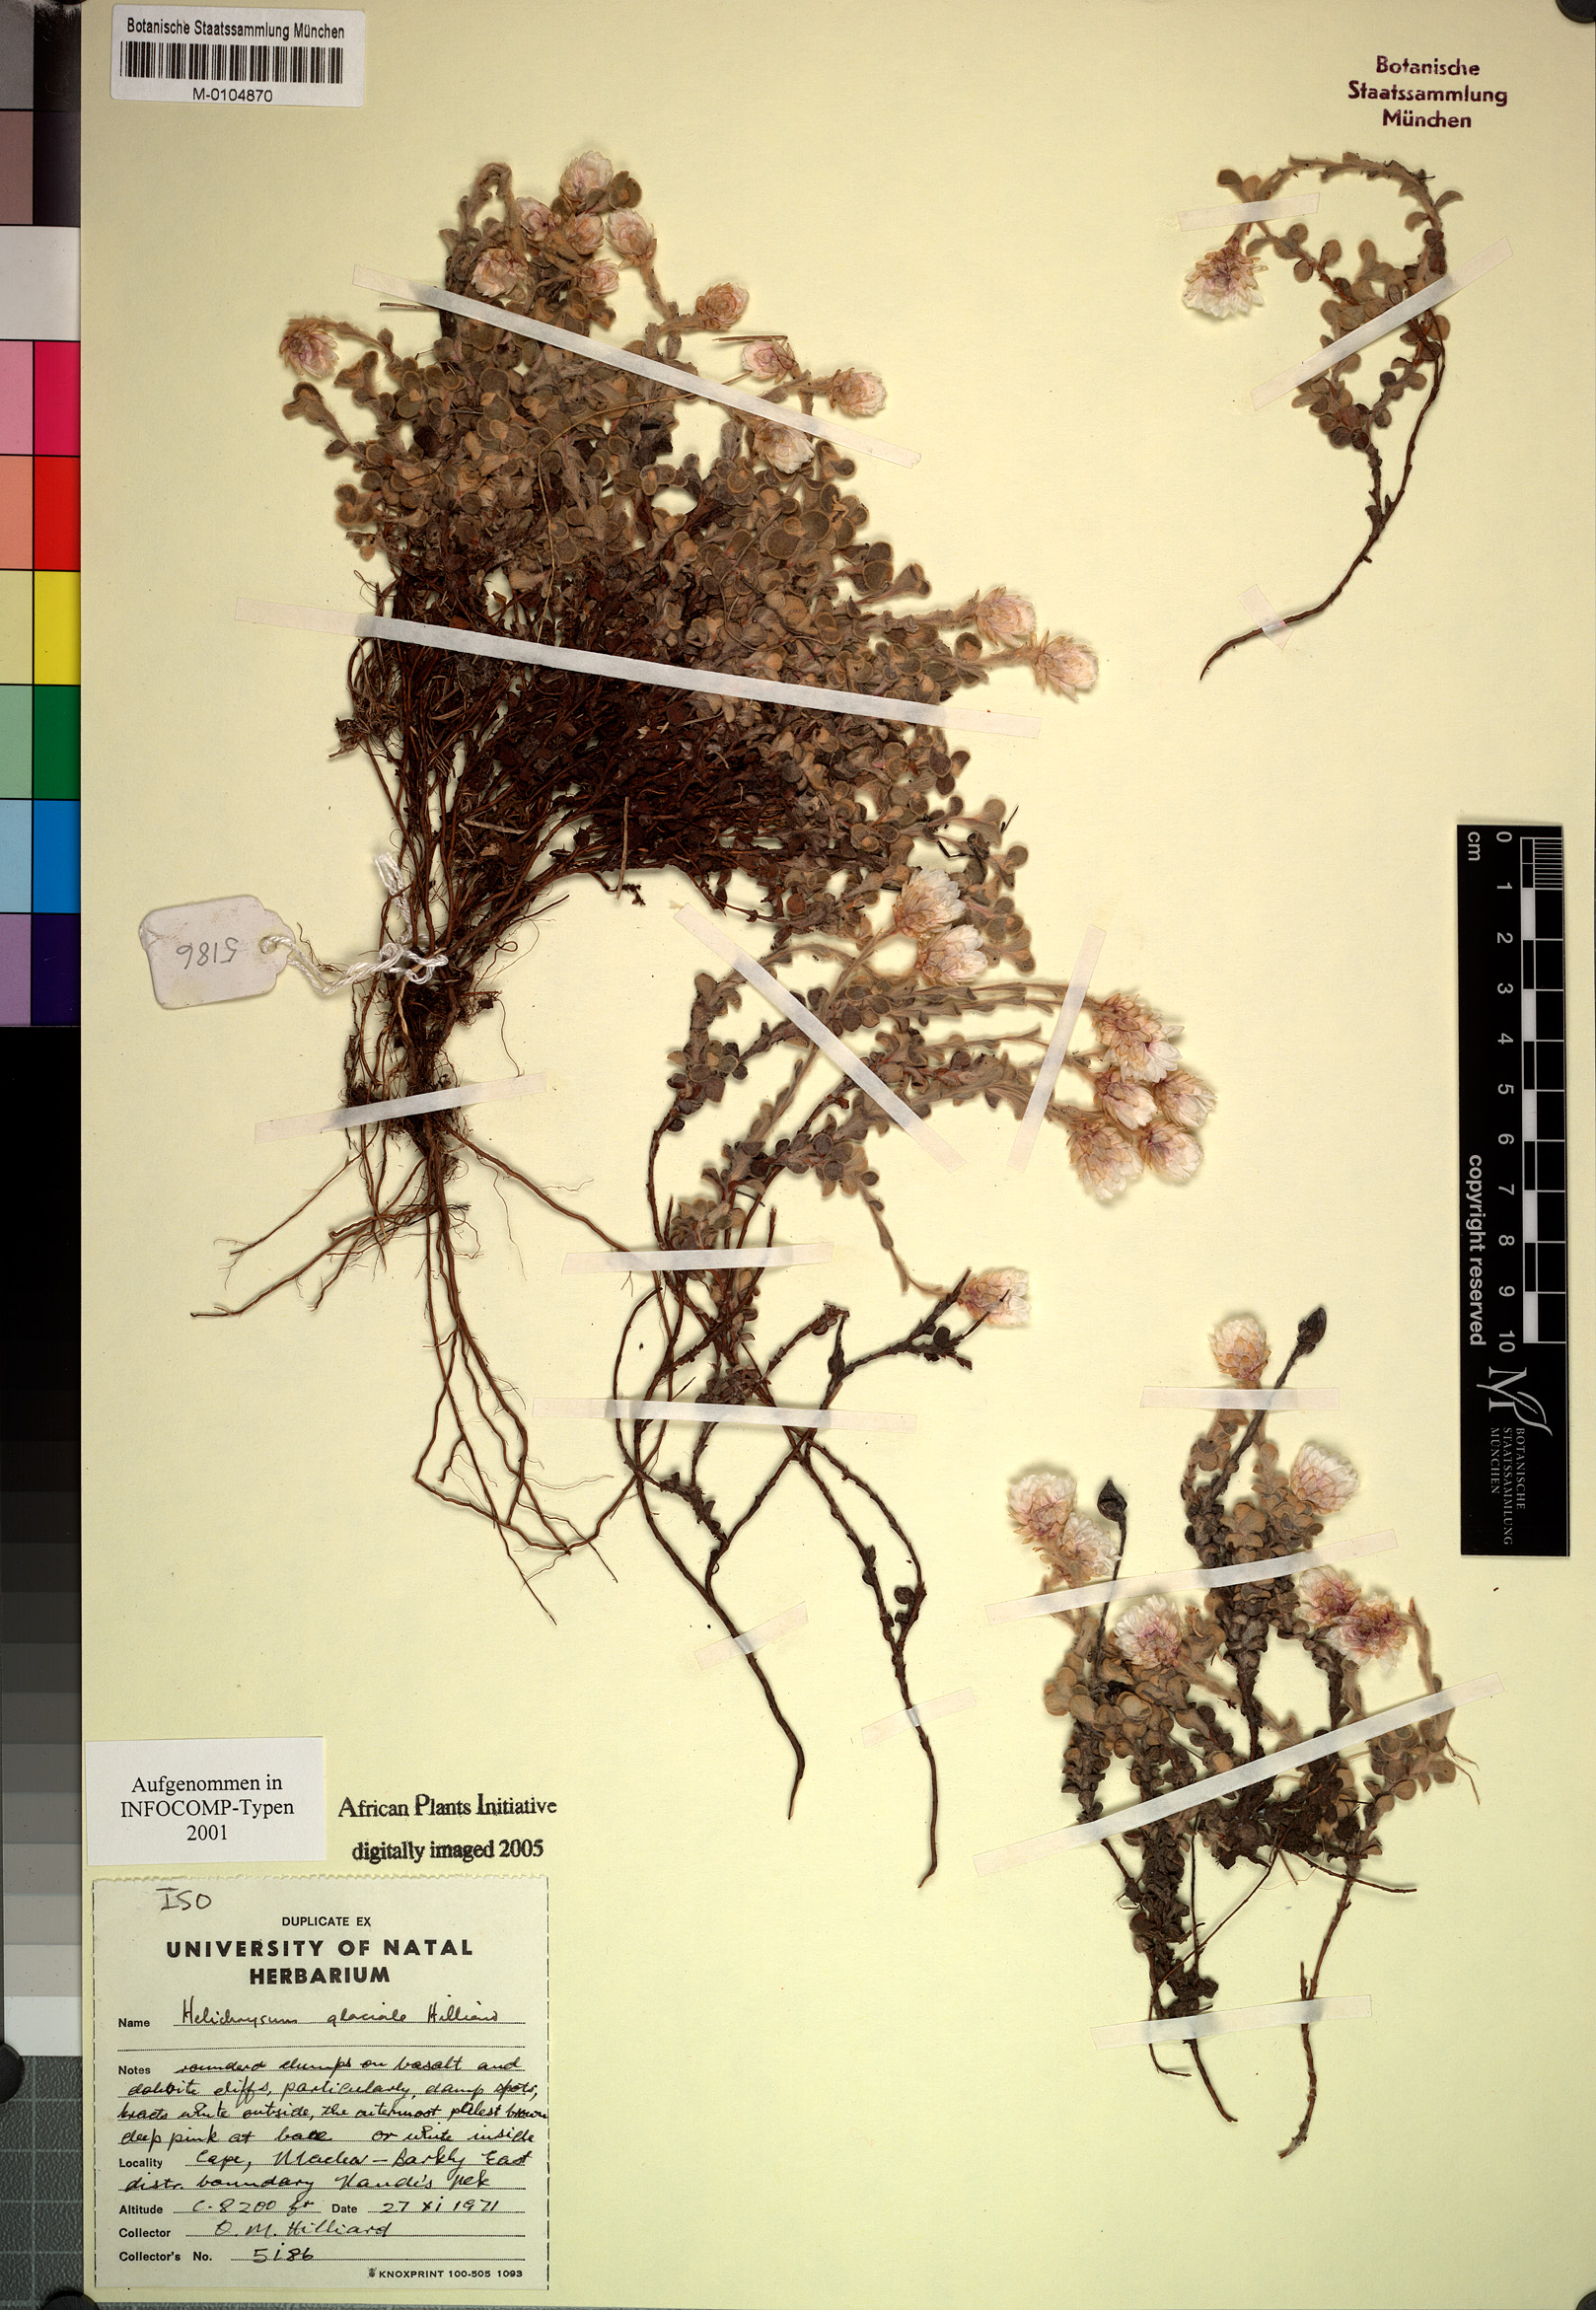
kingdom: Plantae
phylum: Tracheophyta
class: Magnoliopsida
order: Asterales
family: Asteraceae
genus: Helichrysum
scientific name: Helichrysum glaciale
